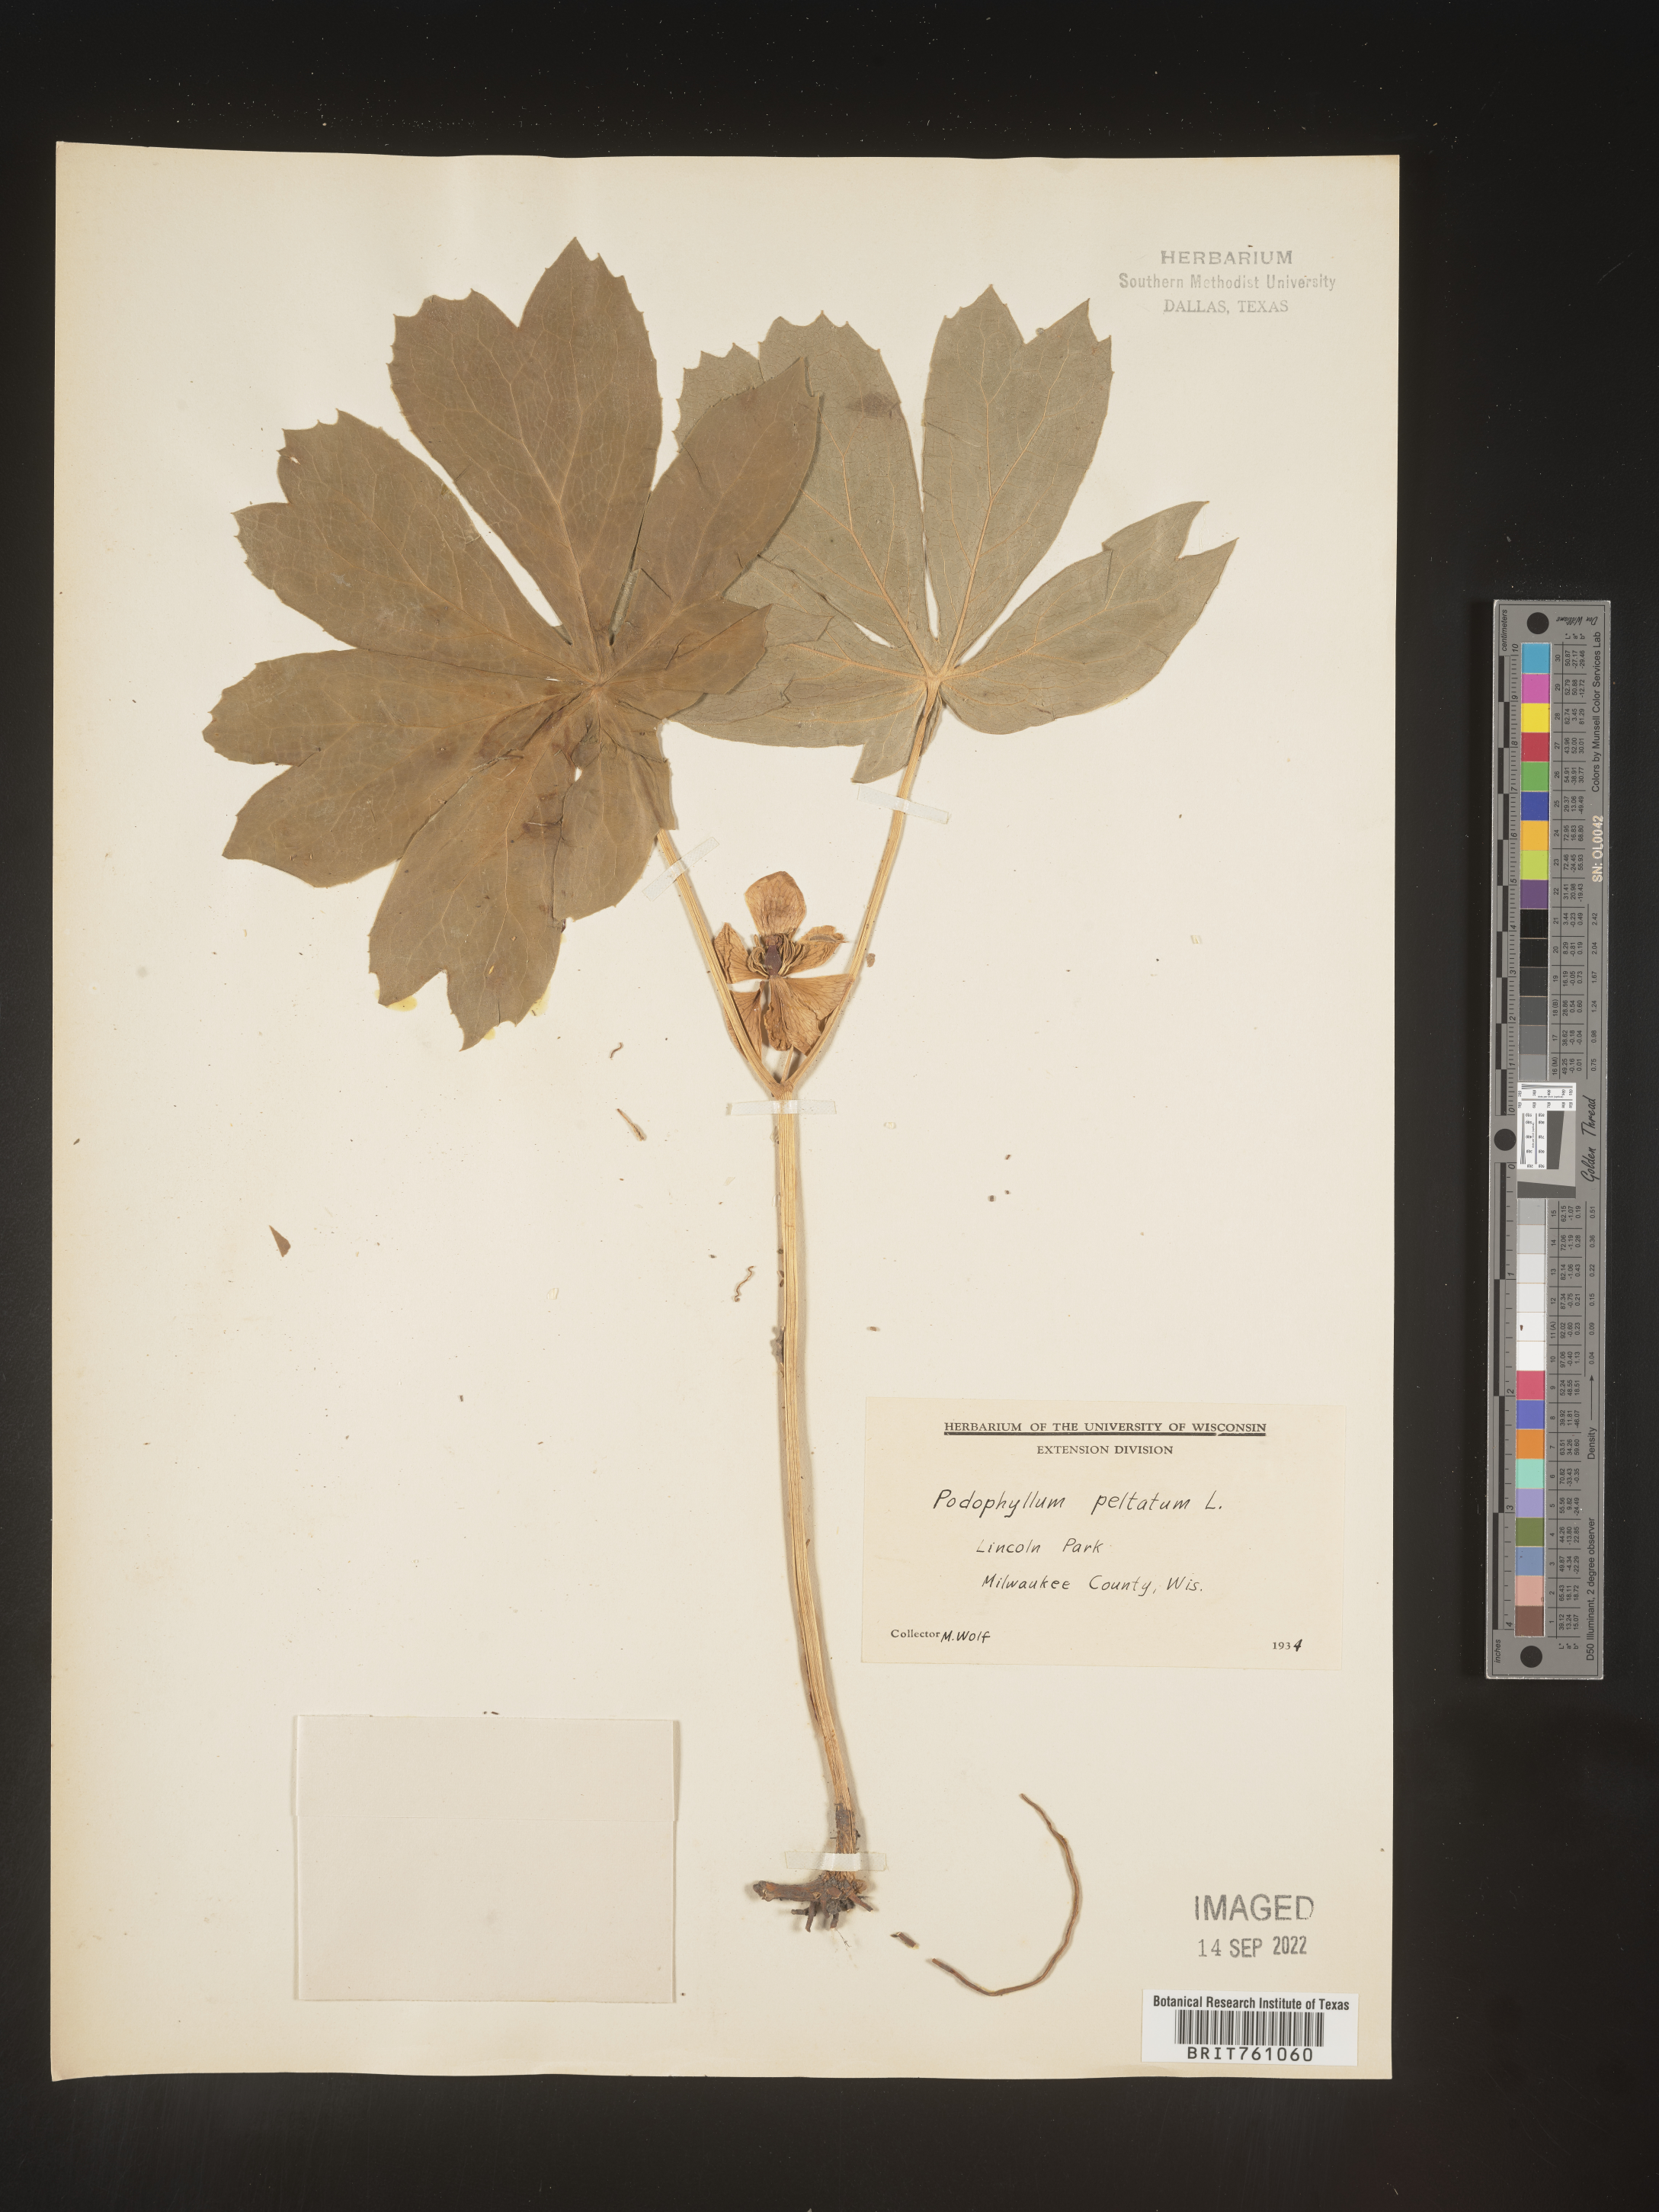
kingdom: Plantae
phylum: Tracheophyta
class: Magnoliopsida
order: Ranunculales
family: Berberidaceae
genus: Podophyllum
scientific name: Podophyllum peltatum
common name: Wild mandrake
